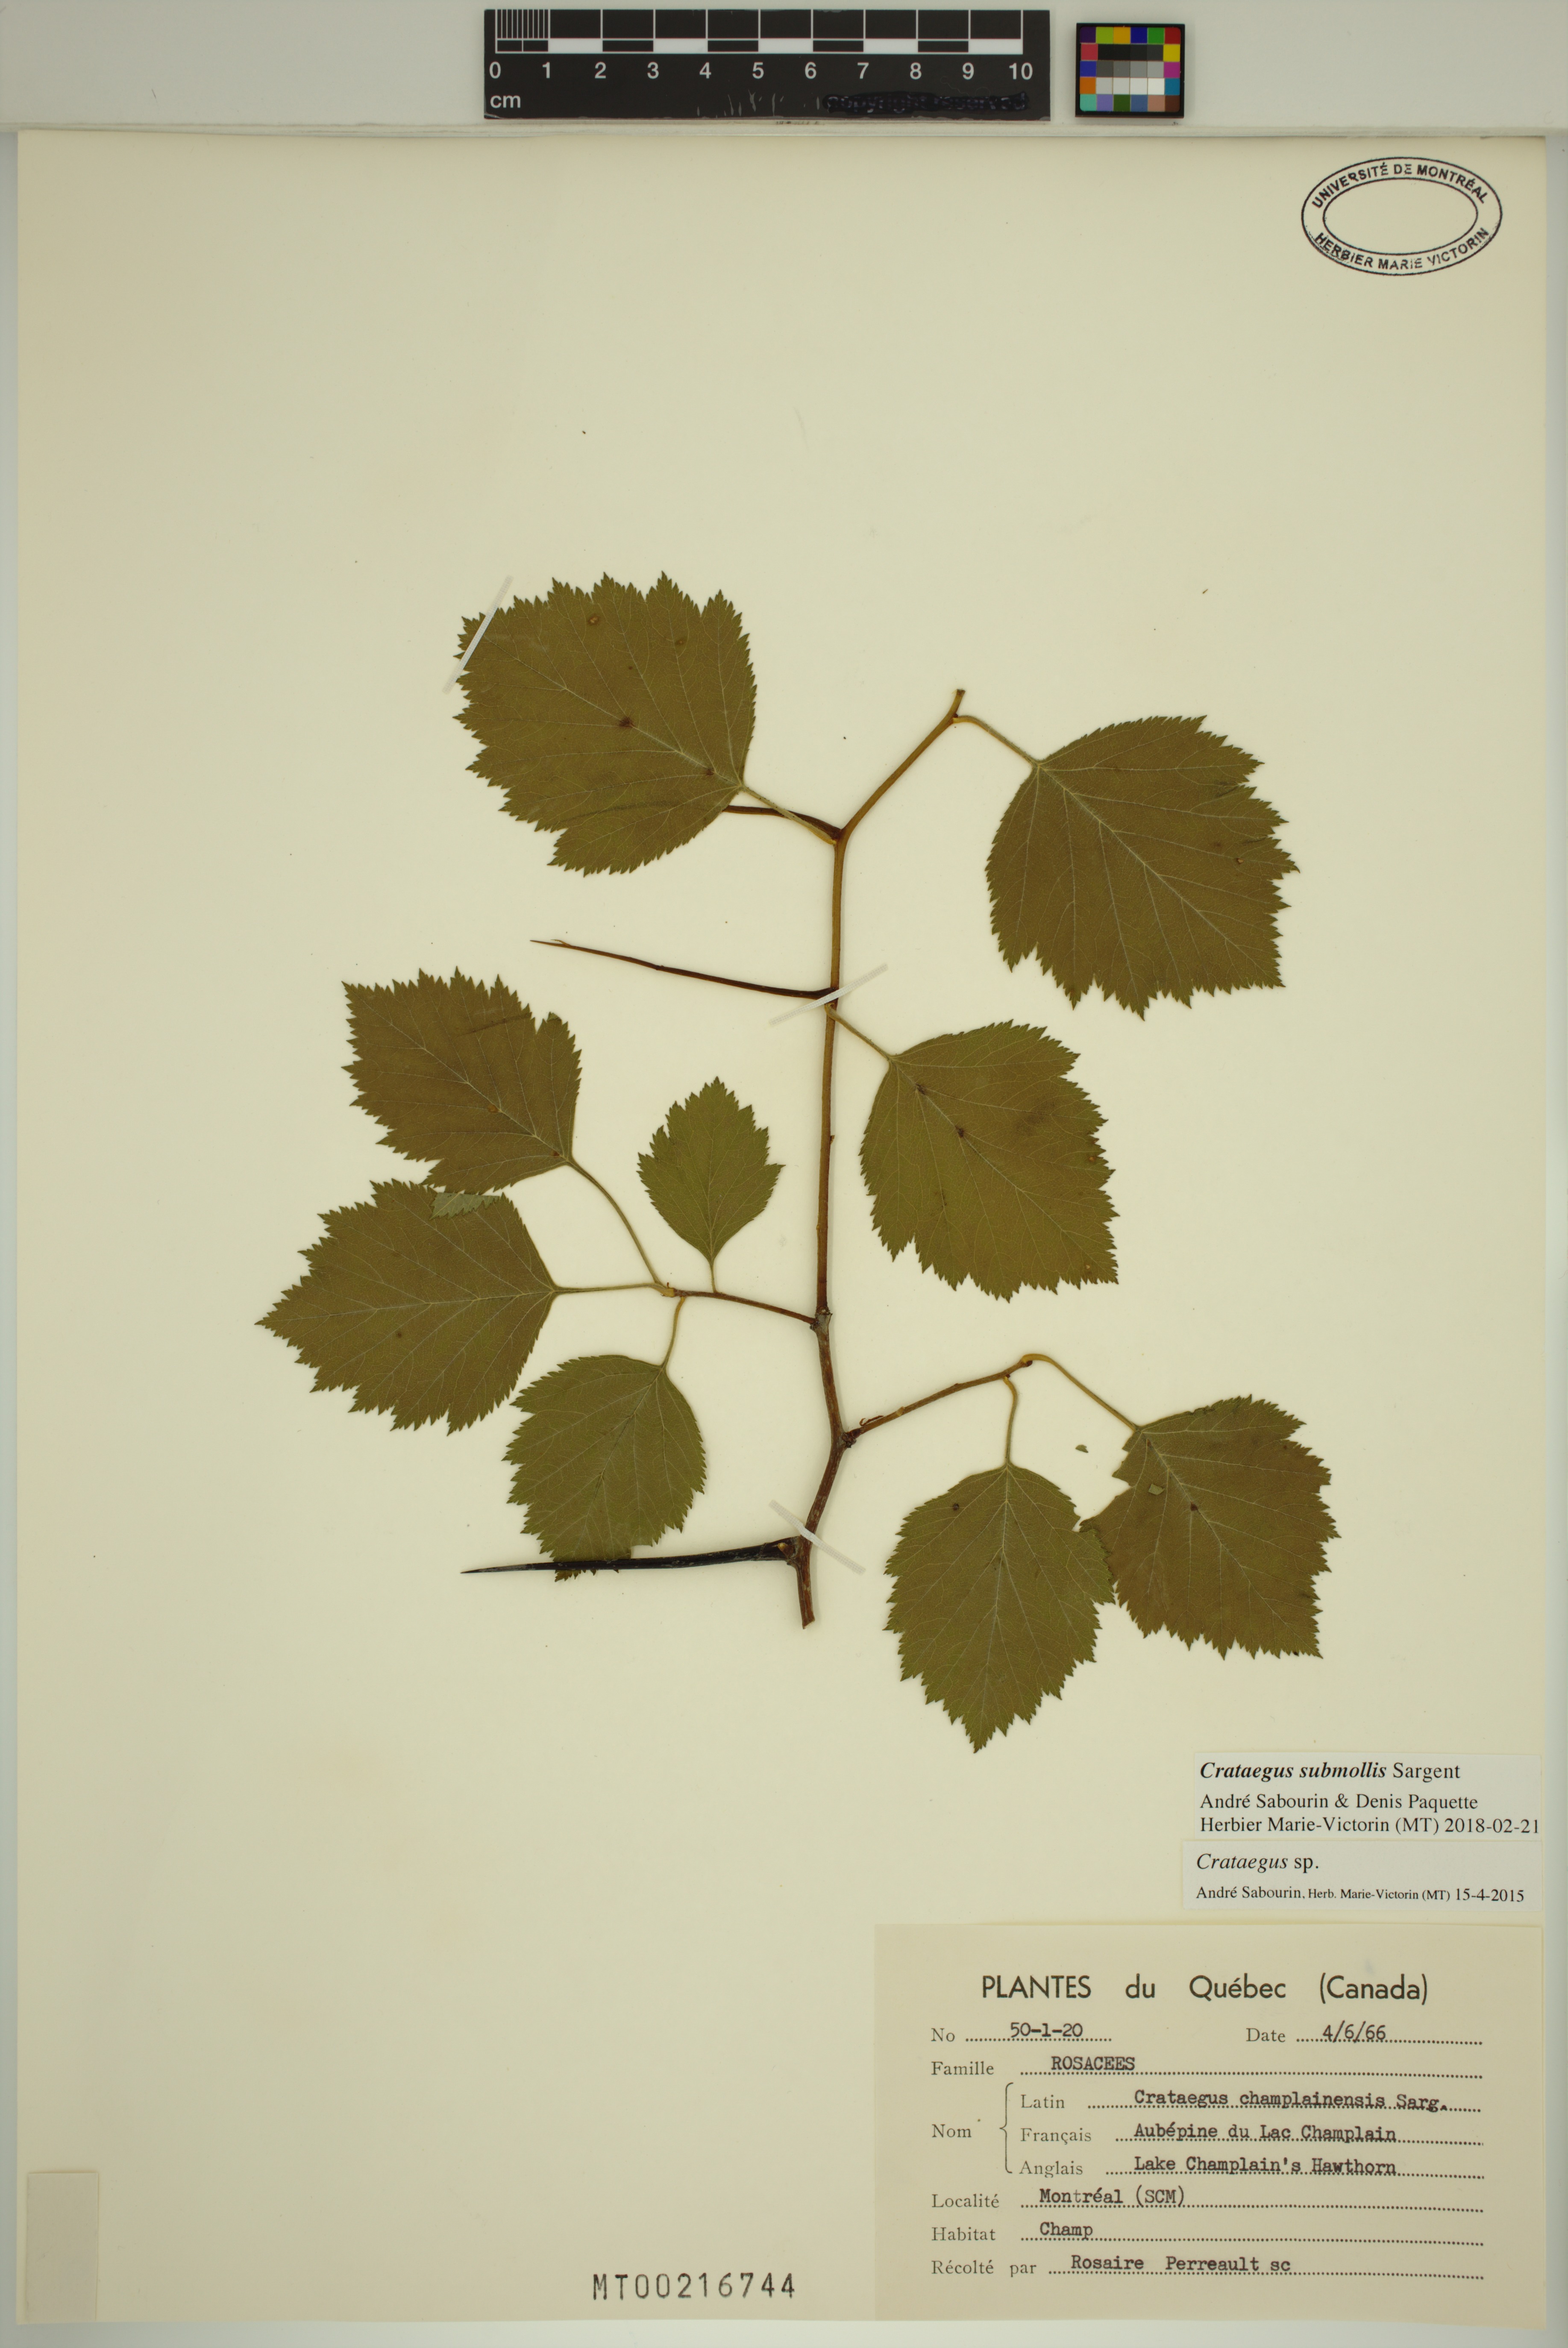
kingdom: Plantae
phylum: Tracheophyta
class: Magnoliopsida
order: Rosales
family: Rosaceae
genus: Crataegus
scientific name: Crataegus submollis
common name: Hairy cockspurthorn
